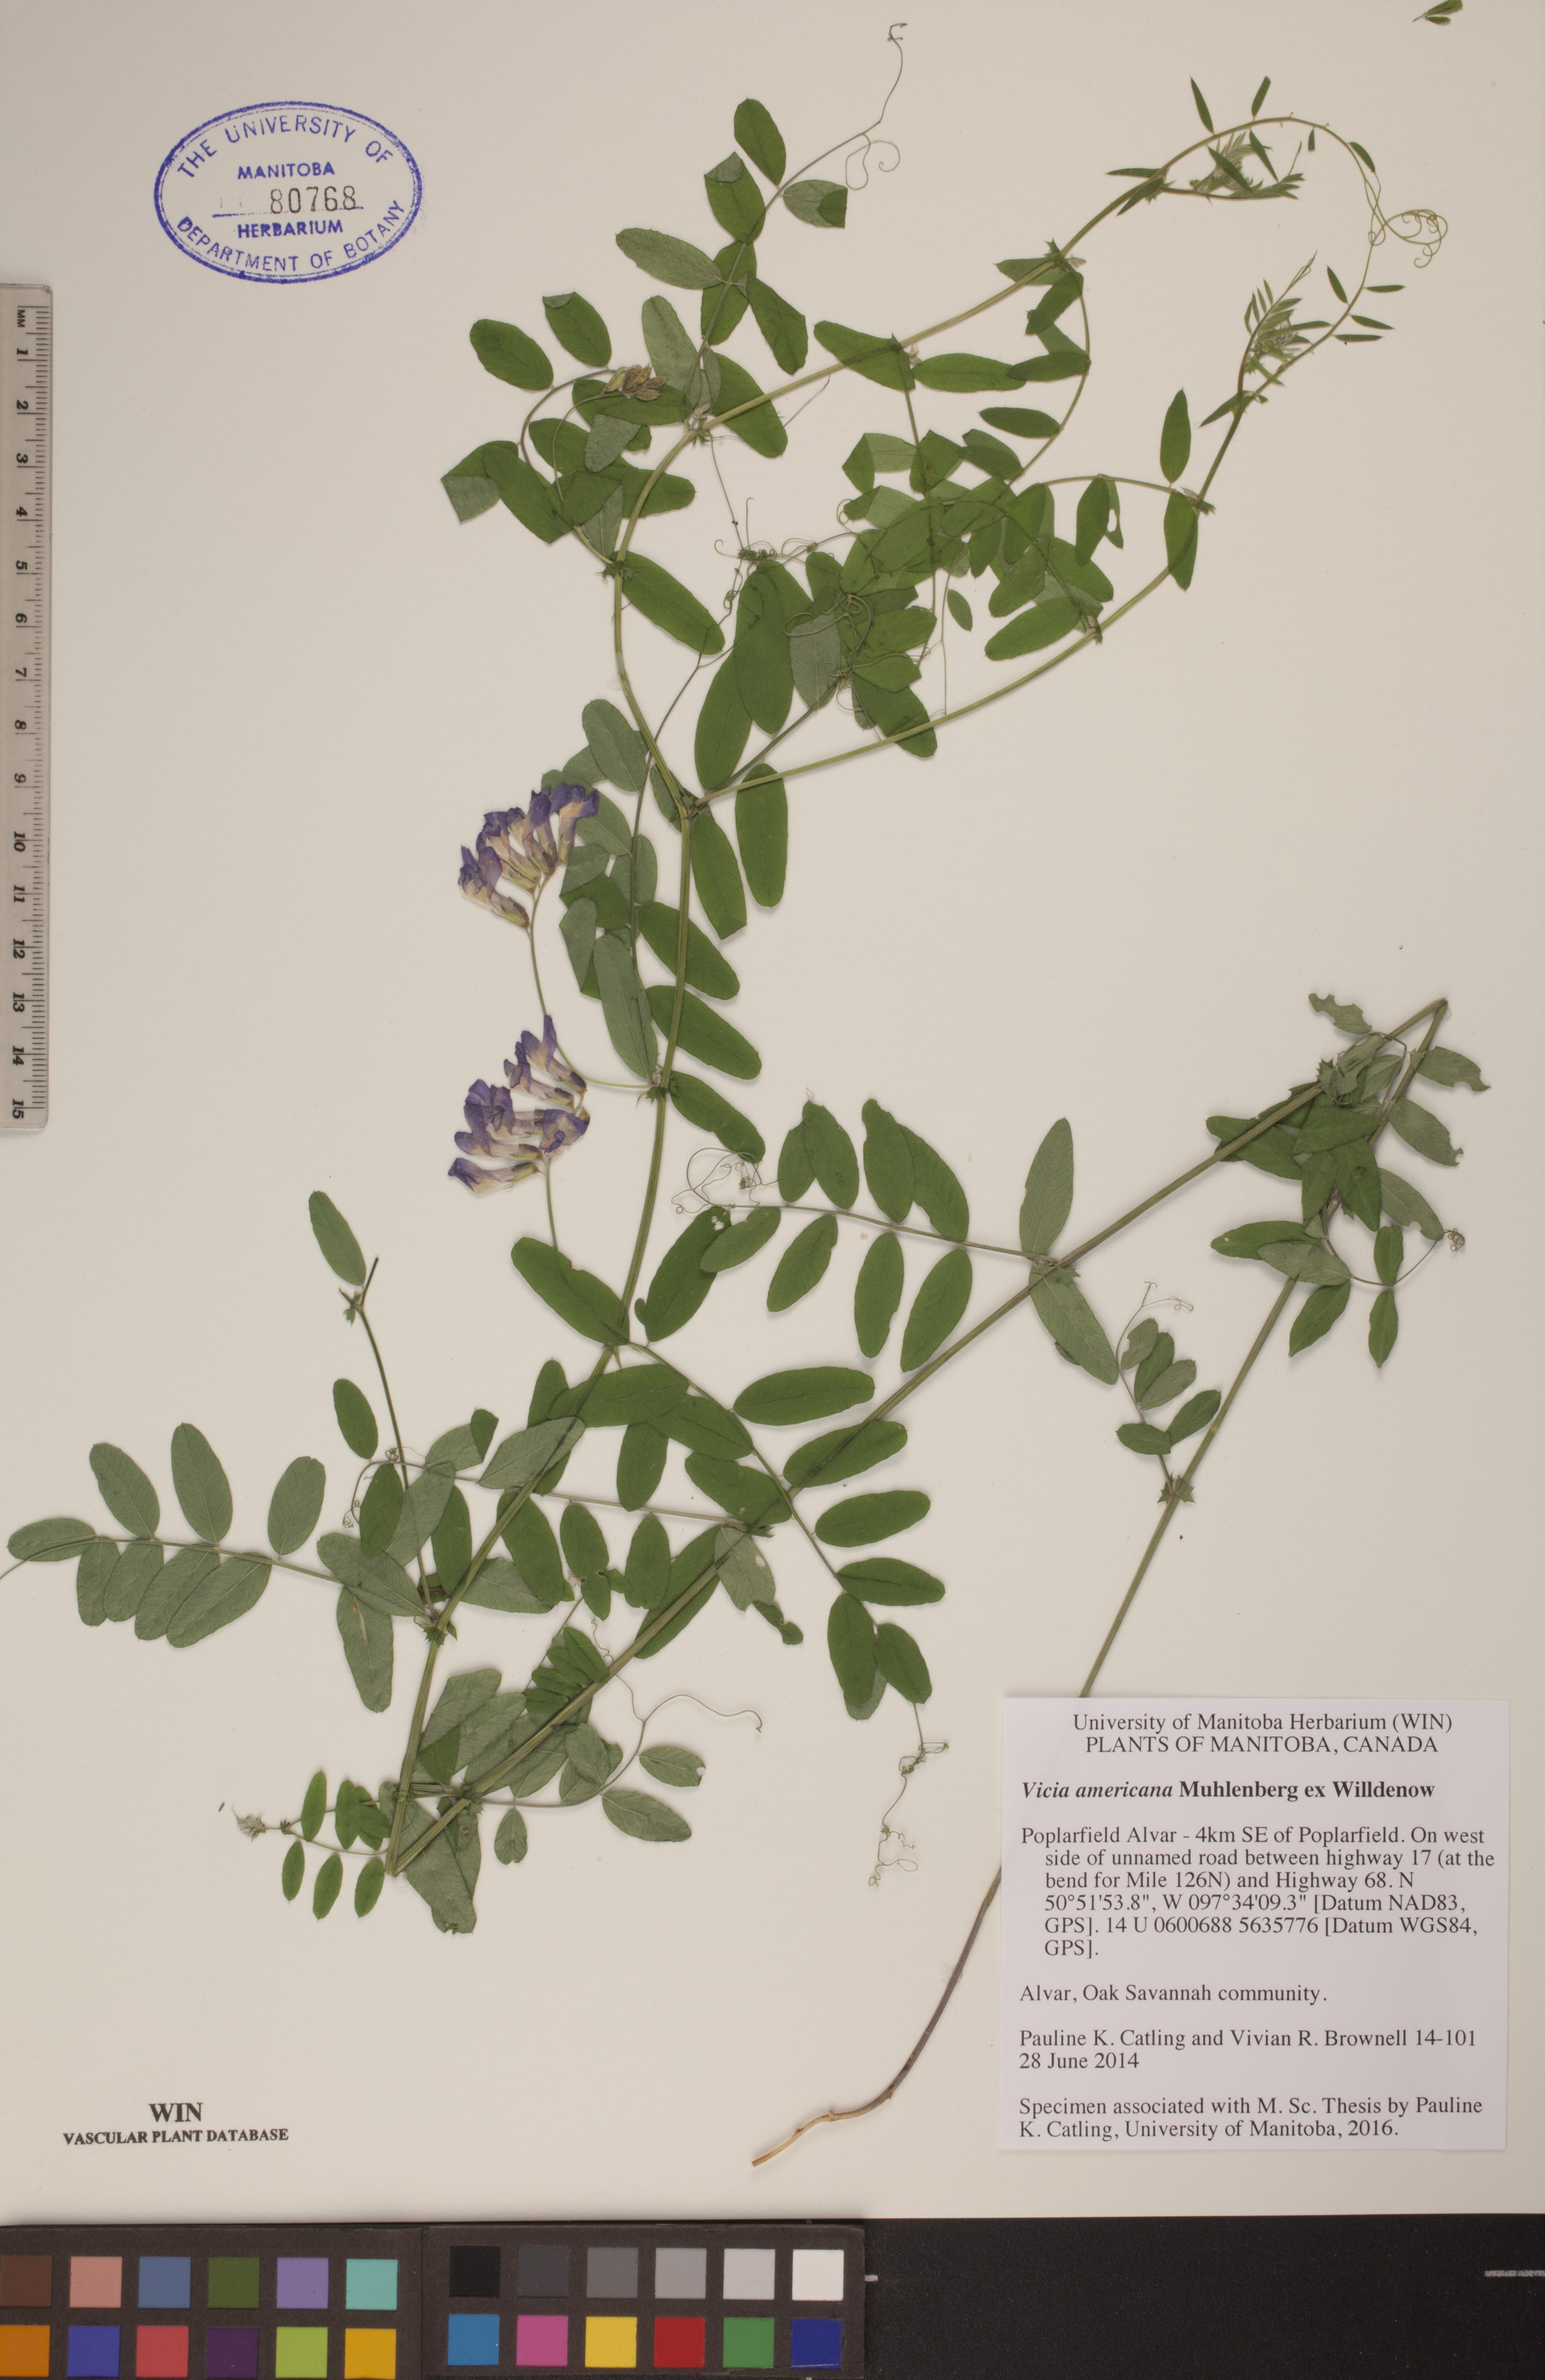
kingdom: Plantae
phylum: Tracheophyta
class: Magnoliopsida
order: Fabales
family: Fabaceae
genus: Vicia
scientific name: Vicia americana
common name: American vetch
